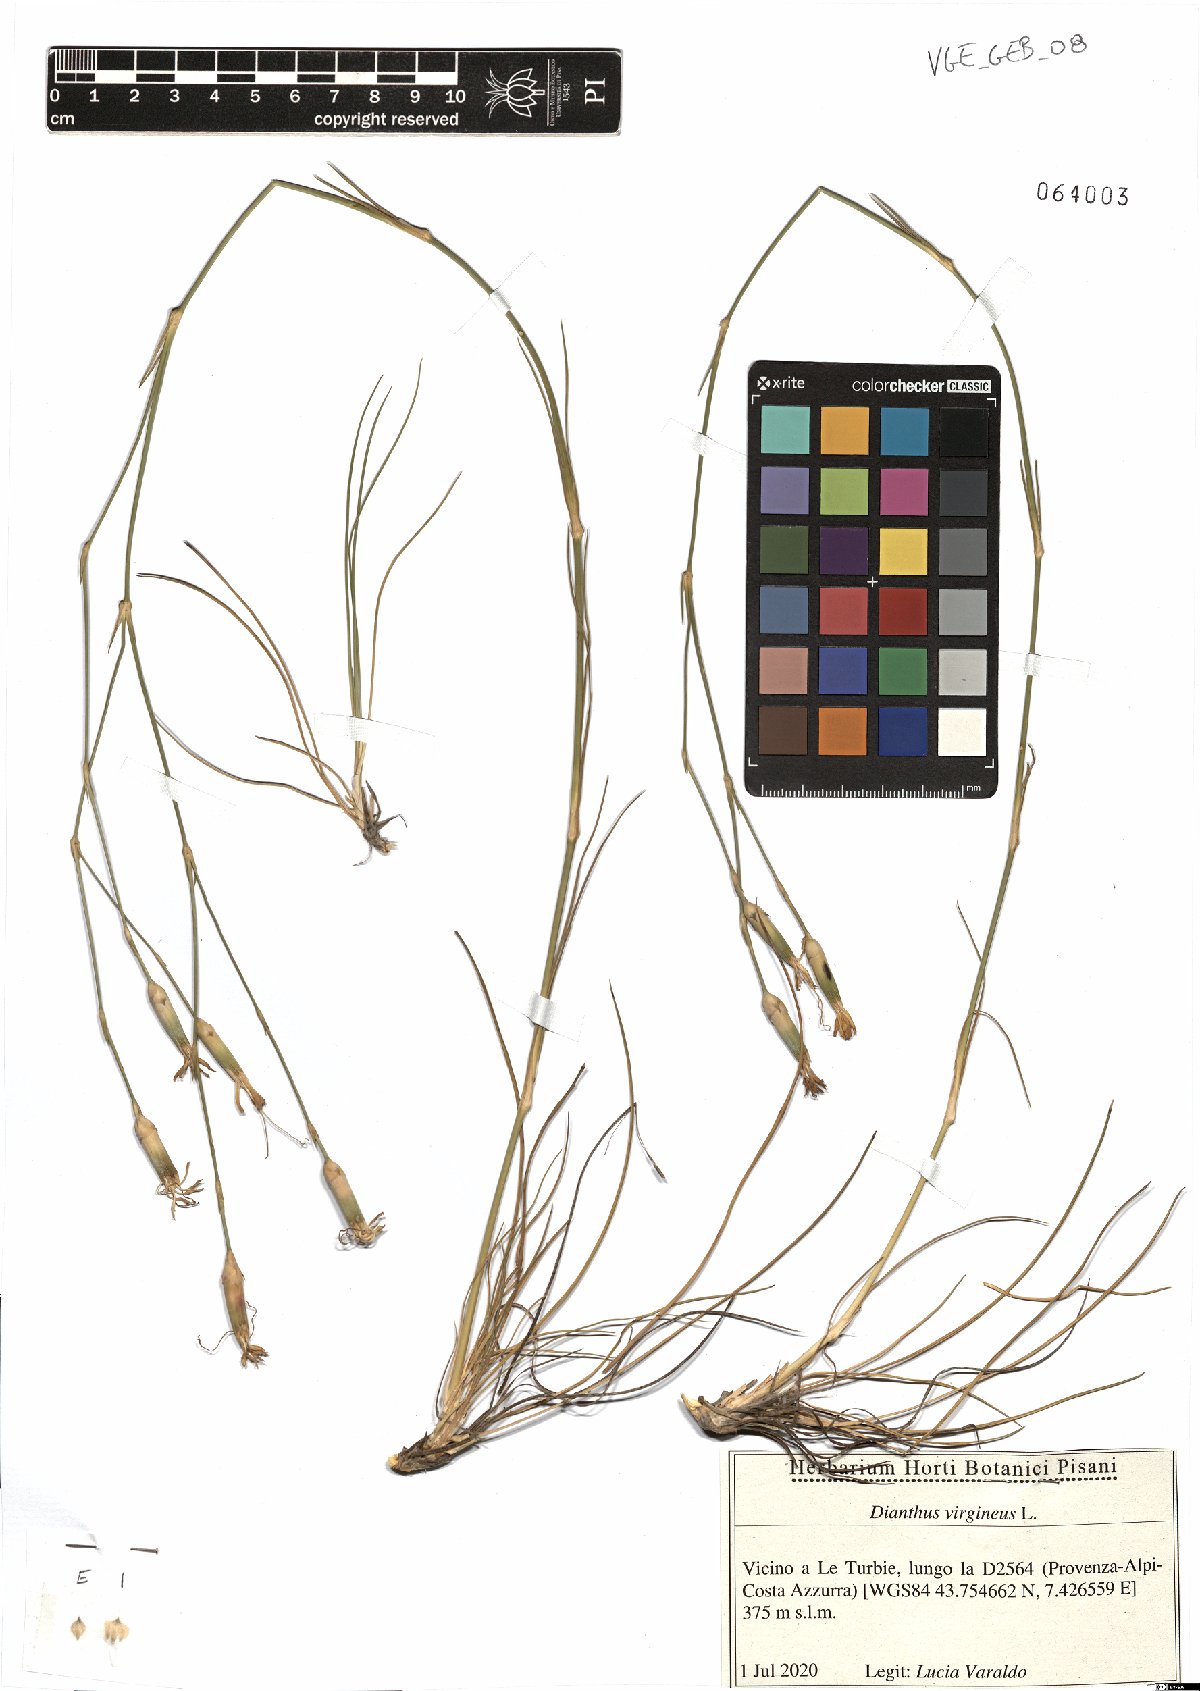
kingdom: Plantae
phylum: Tracheophyta
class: Magnoliopsida
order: Caryophyllales
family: Caryophyllaceae
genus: Dianthus
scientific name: Dianthus virgineus
